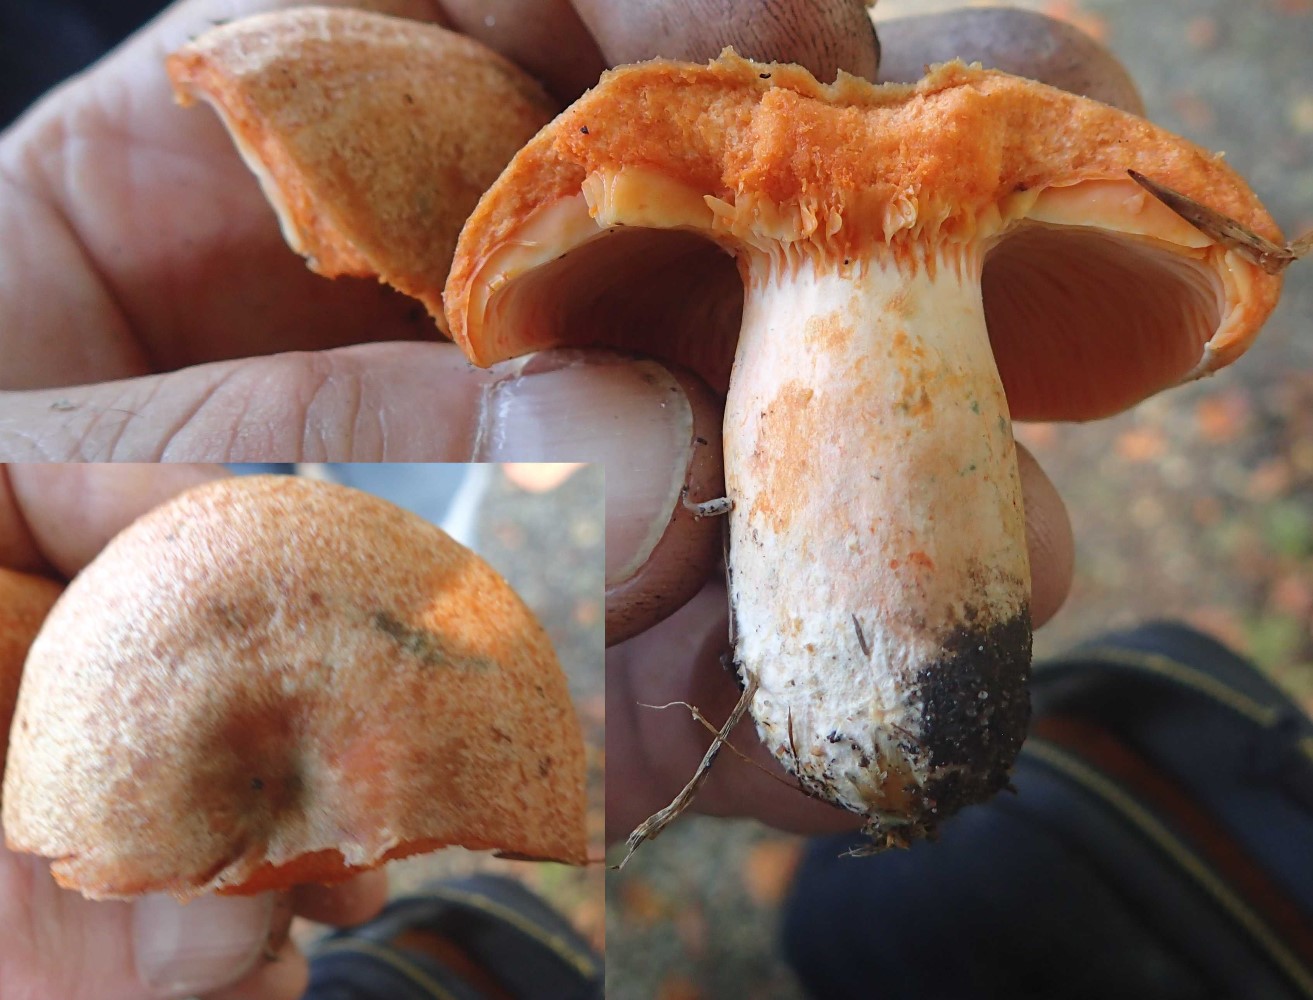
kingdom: Fungi
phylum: Basidiomycota
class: Agaricomycetes
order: Russulales
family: Russulaceae
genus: Lactarius
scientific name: Lactarius
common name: mælkehat
